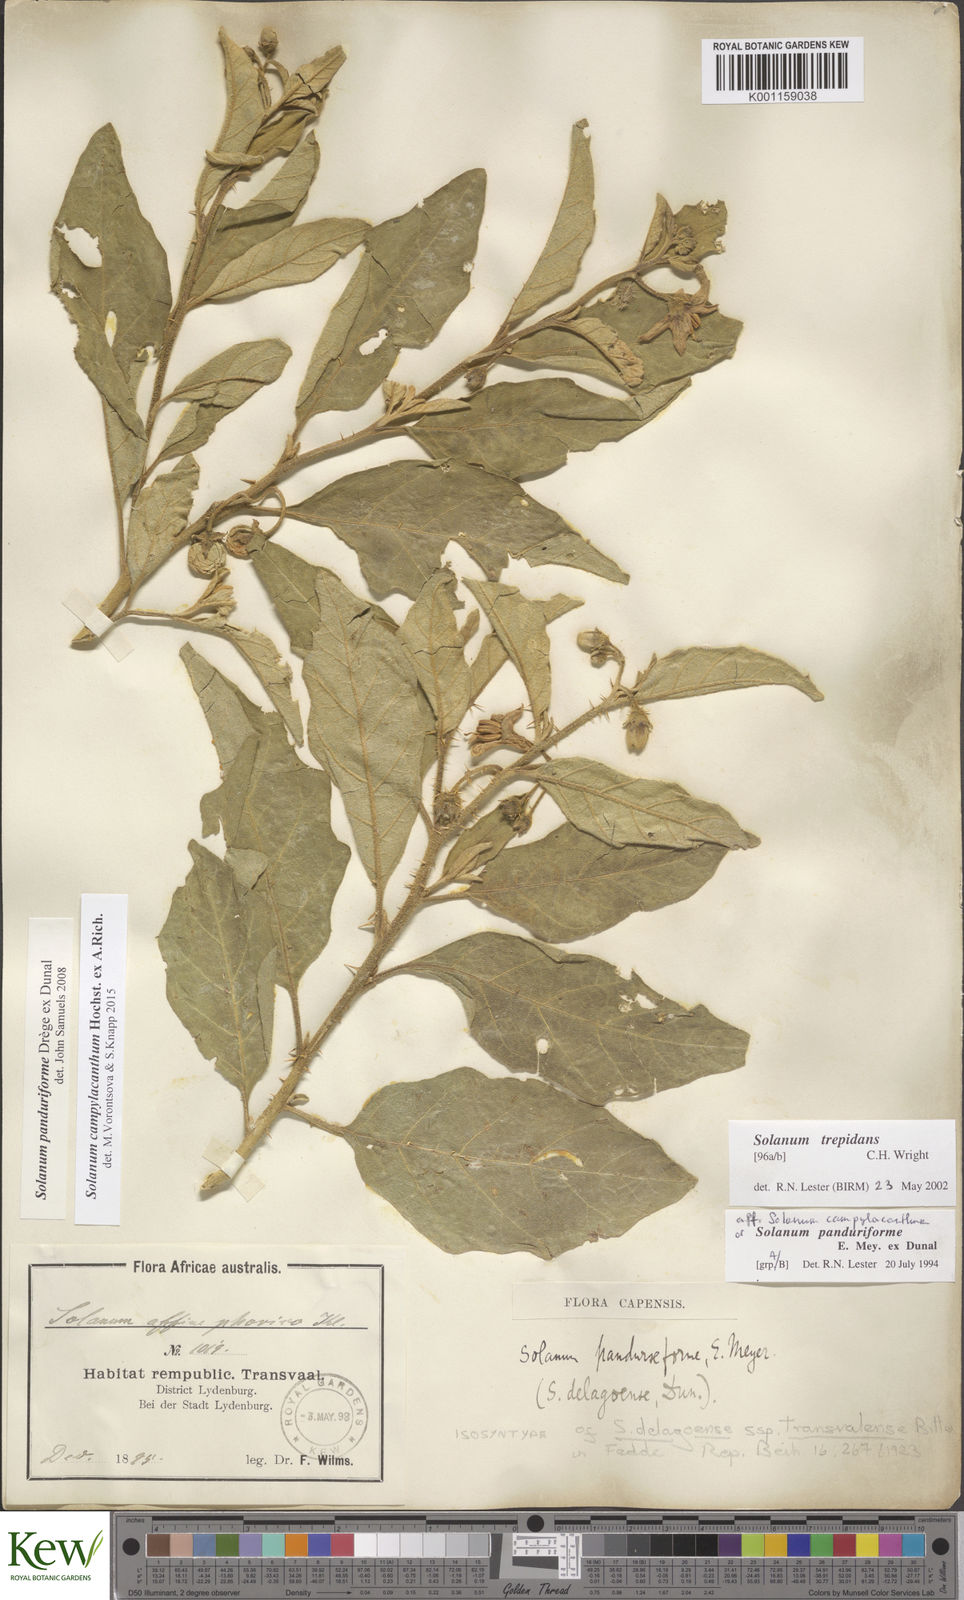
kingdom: Plantae
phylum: Tracheophyta
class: Magnoliopsida
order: Solanales
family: Solanaceae
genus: Solanum
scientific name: Solanum campylacanthum
